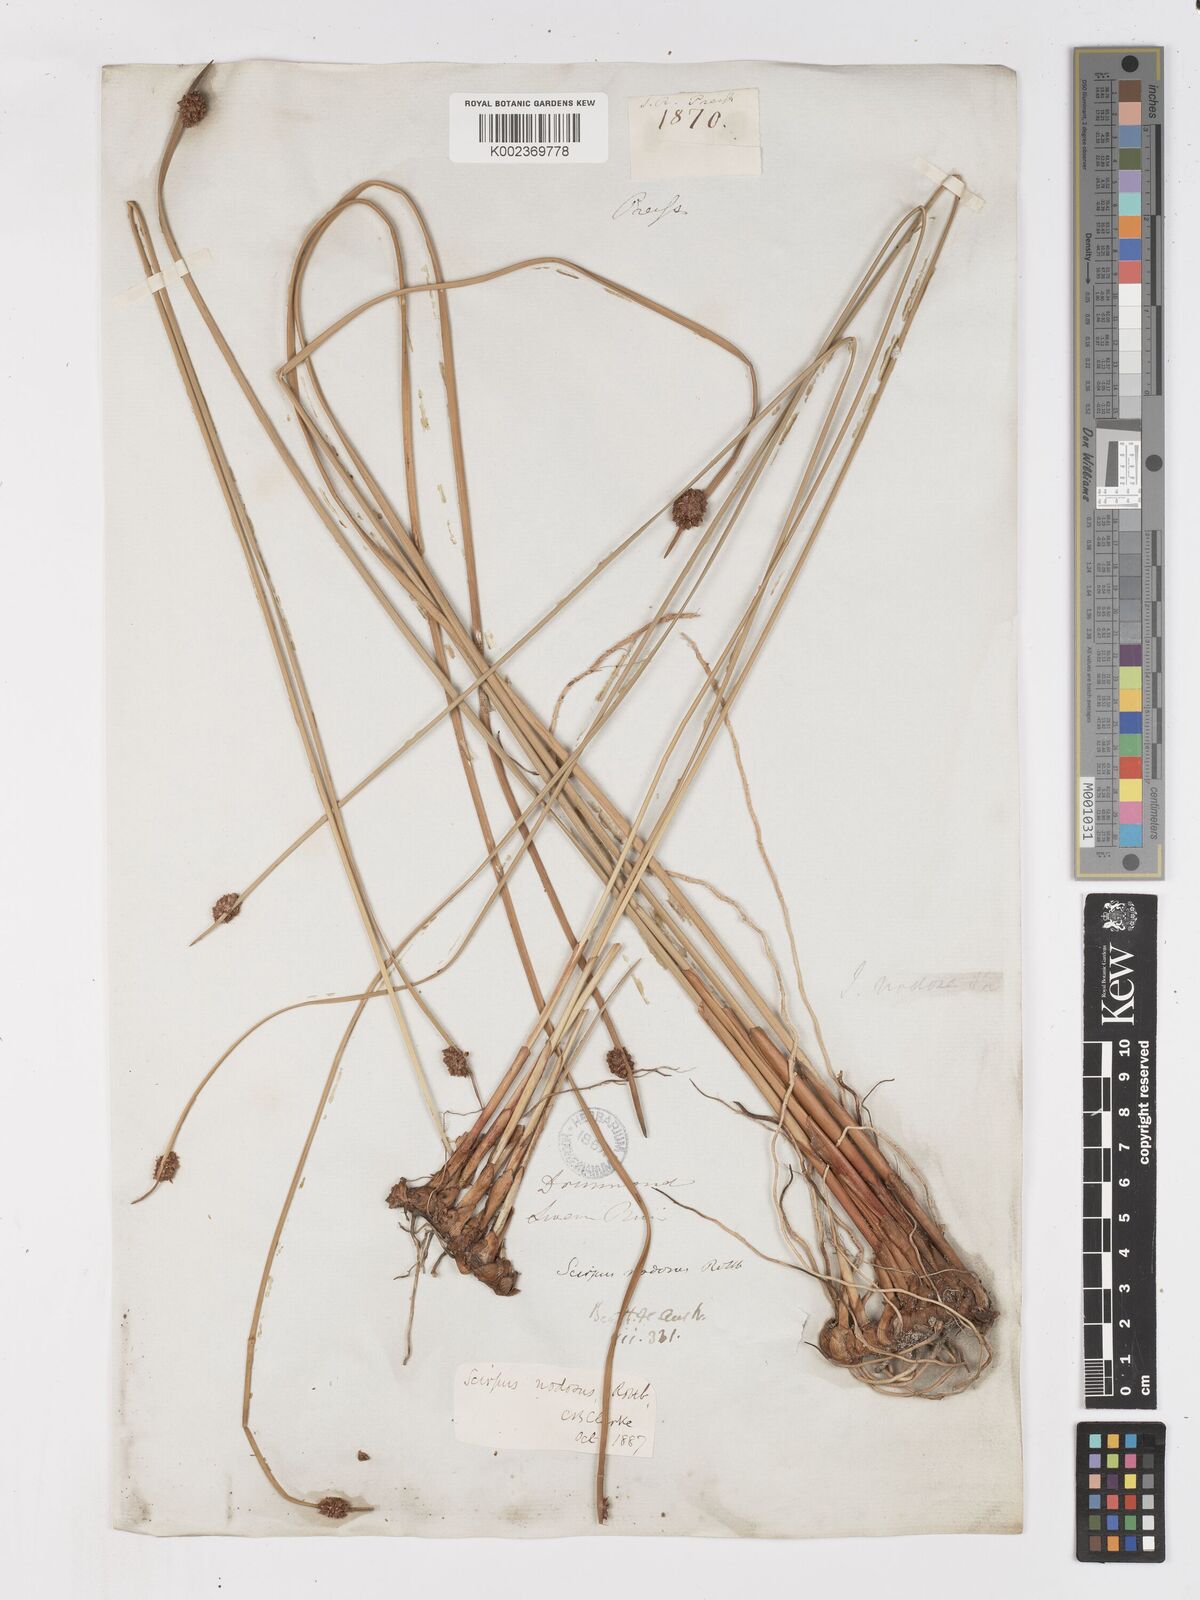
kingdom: Plantae
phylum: Tracheophyta
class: Liliopsida
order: Poales
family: Cyperaceae
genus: Ficinia
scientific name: Ficinia nodosa
